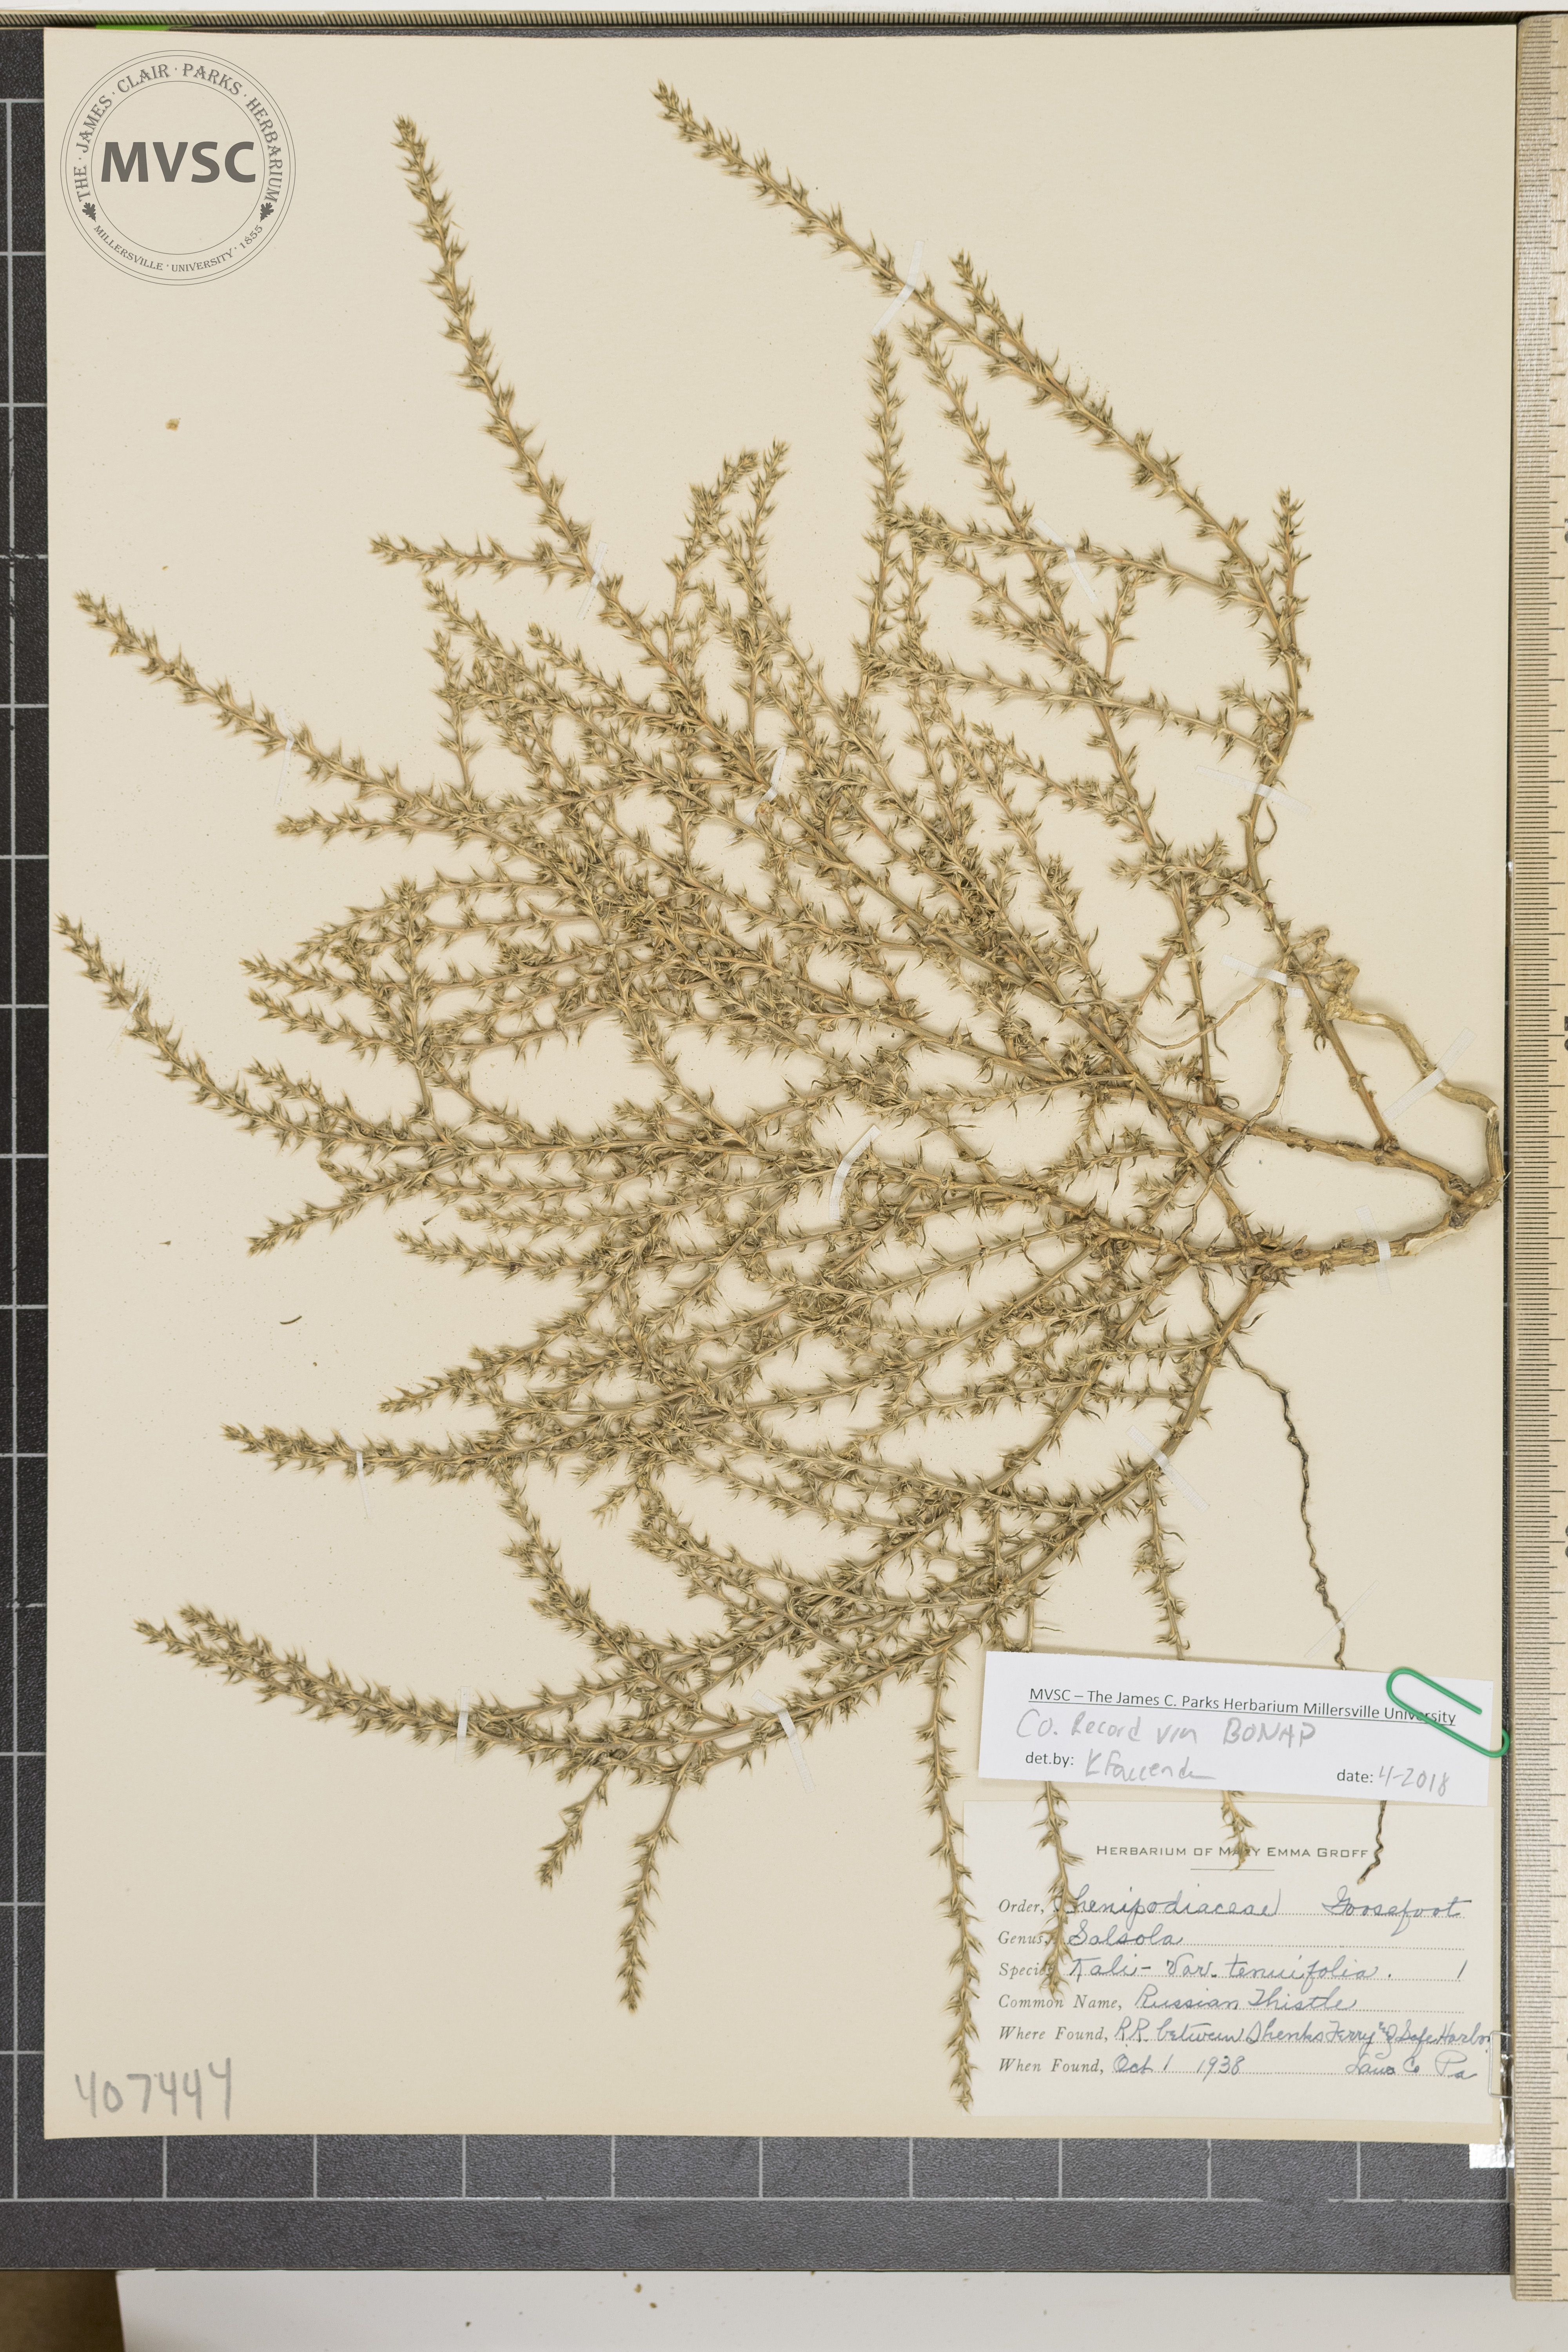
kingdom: Plantae
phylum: Tracheophyta
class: Magnoliopsida
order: Caryophyllales
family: Amaranthaceae
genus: Salsola
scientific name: Salsola tragus
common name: Russian Thistle
